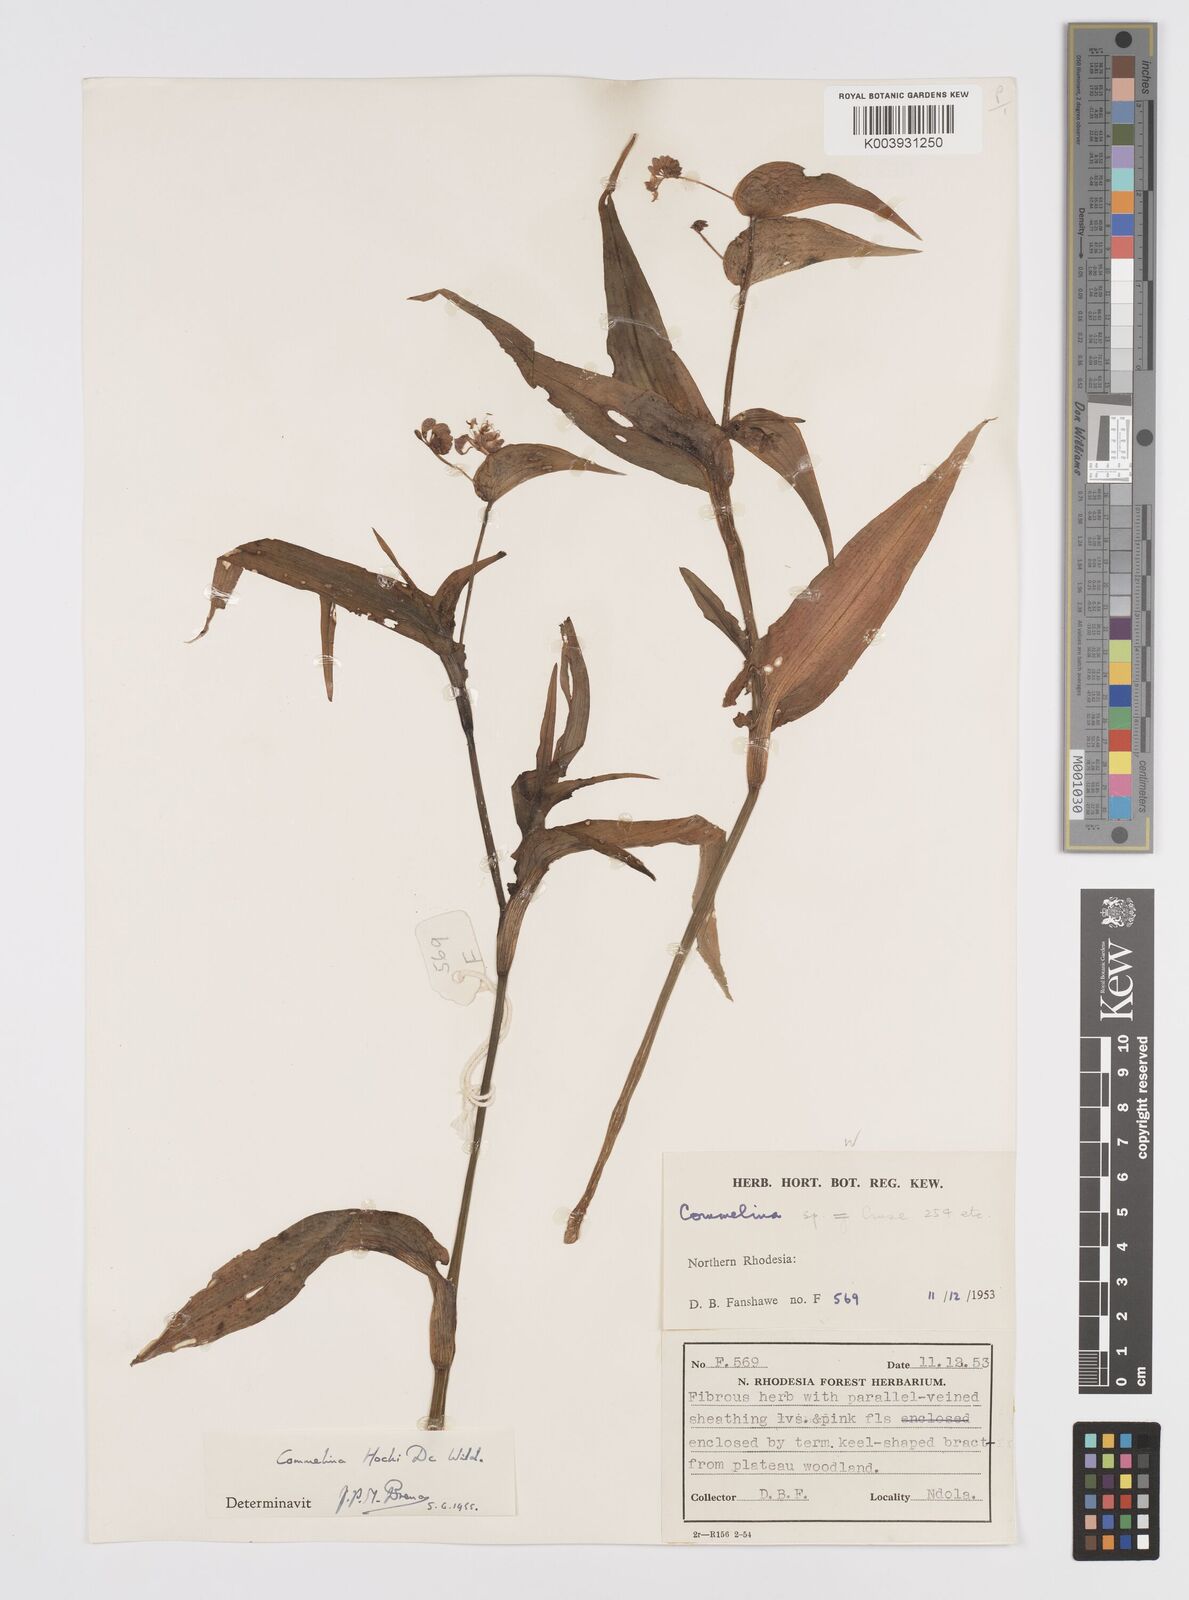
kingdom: Plantae
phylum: Tracheophyta
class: Liliopsida
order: Commelinales
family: Commelinaceae
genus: Commelina
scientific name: Commelina hockii
